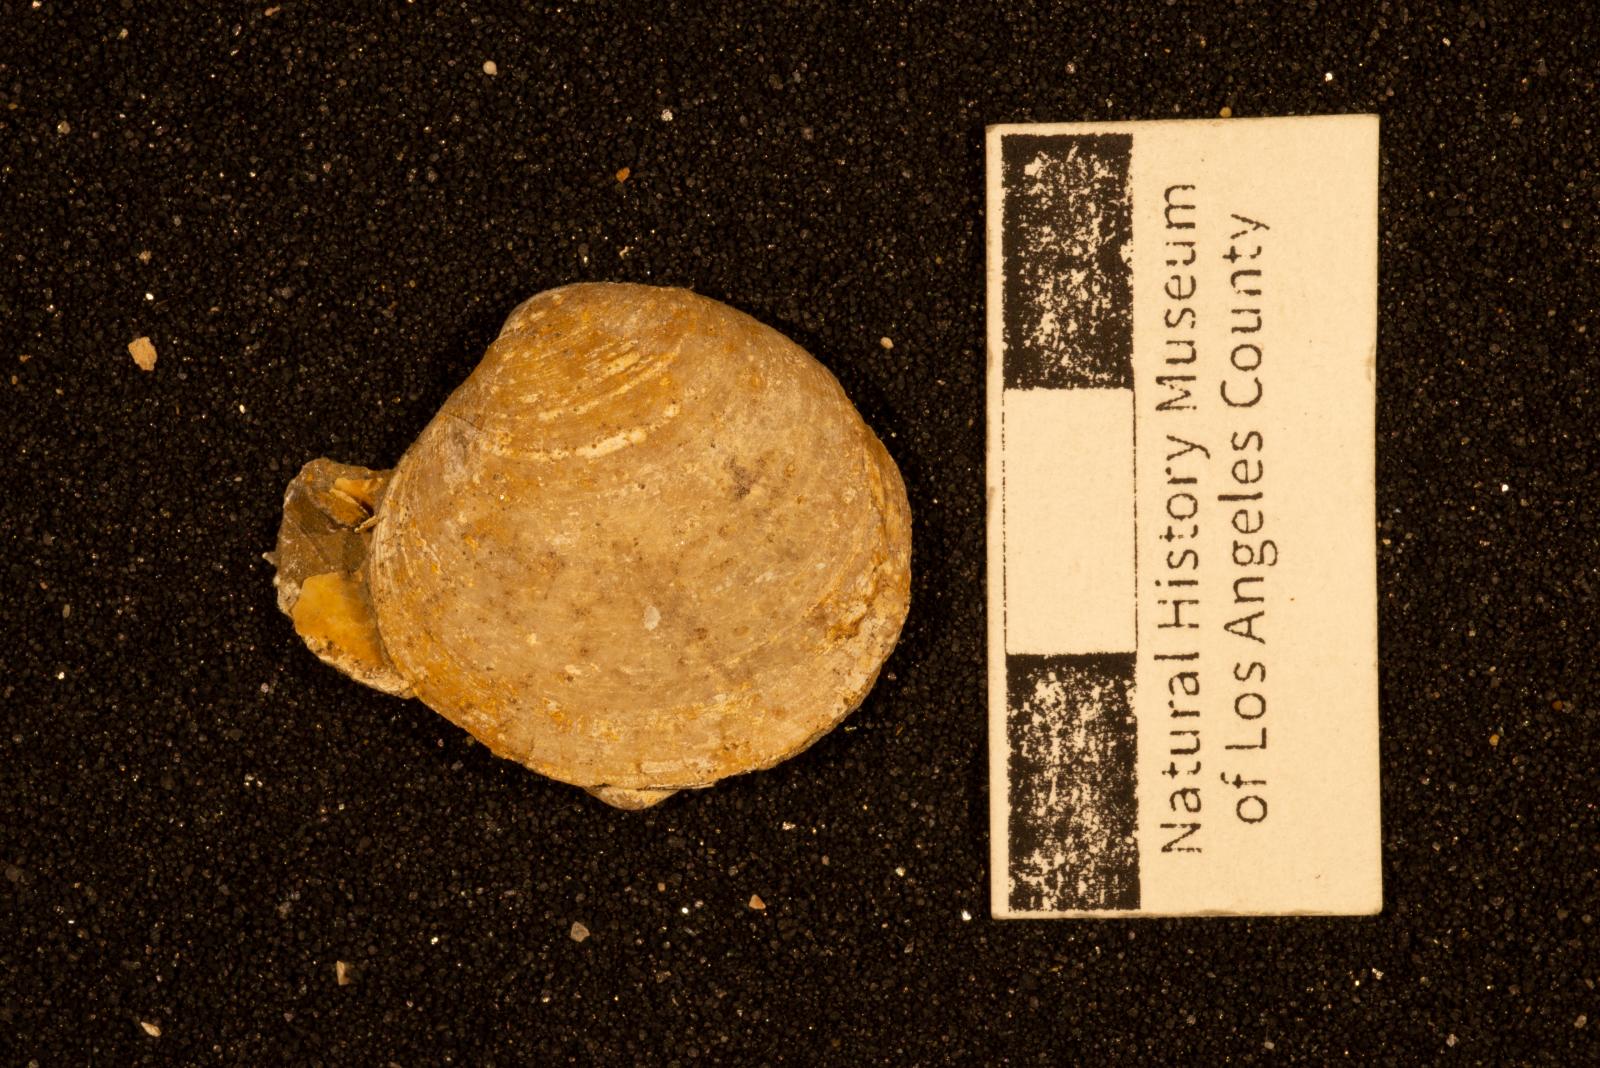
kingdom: Animalia
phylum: Mollusca
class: Bivalvia
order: Venerida
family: Veneridae
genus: Paraesa
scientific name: Paraesa
